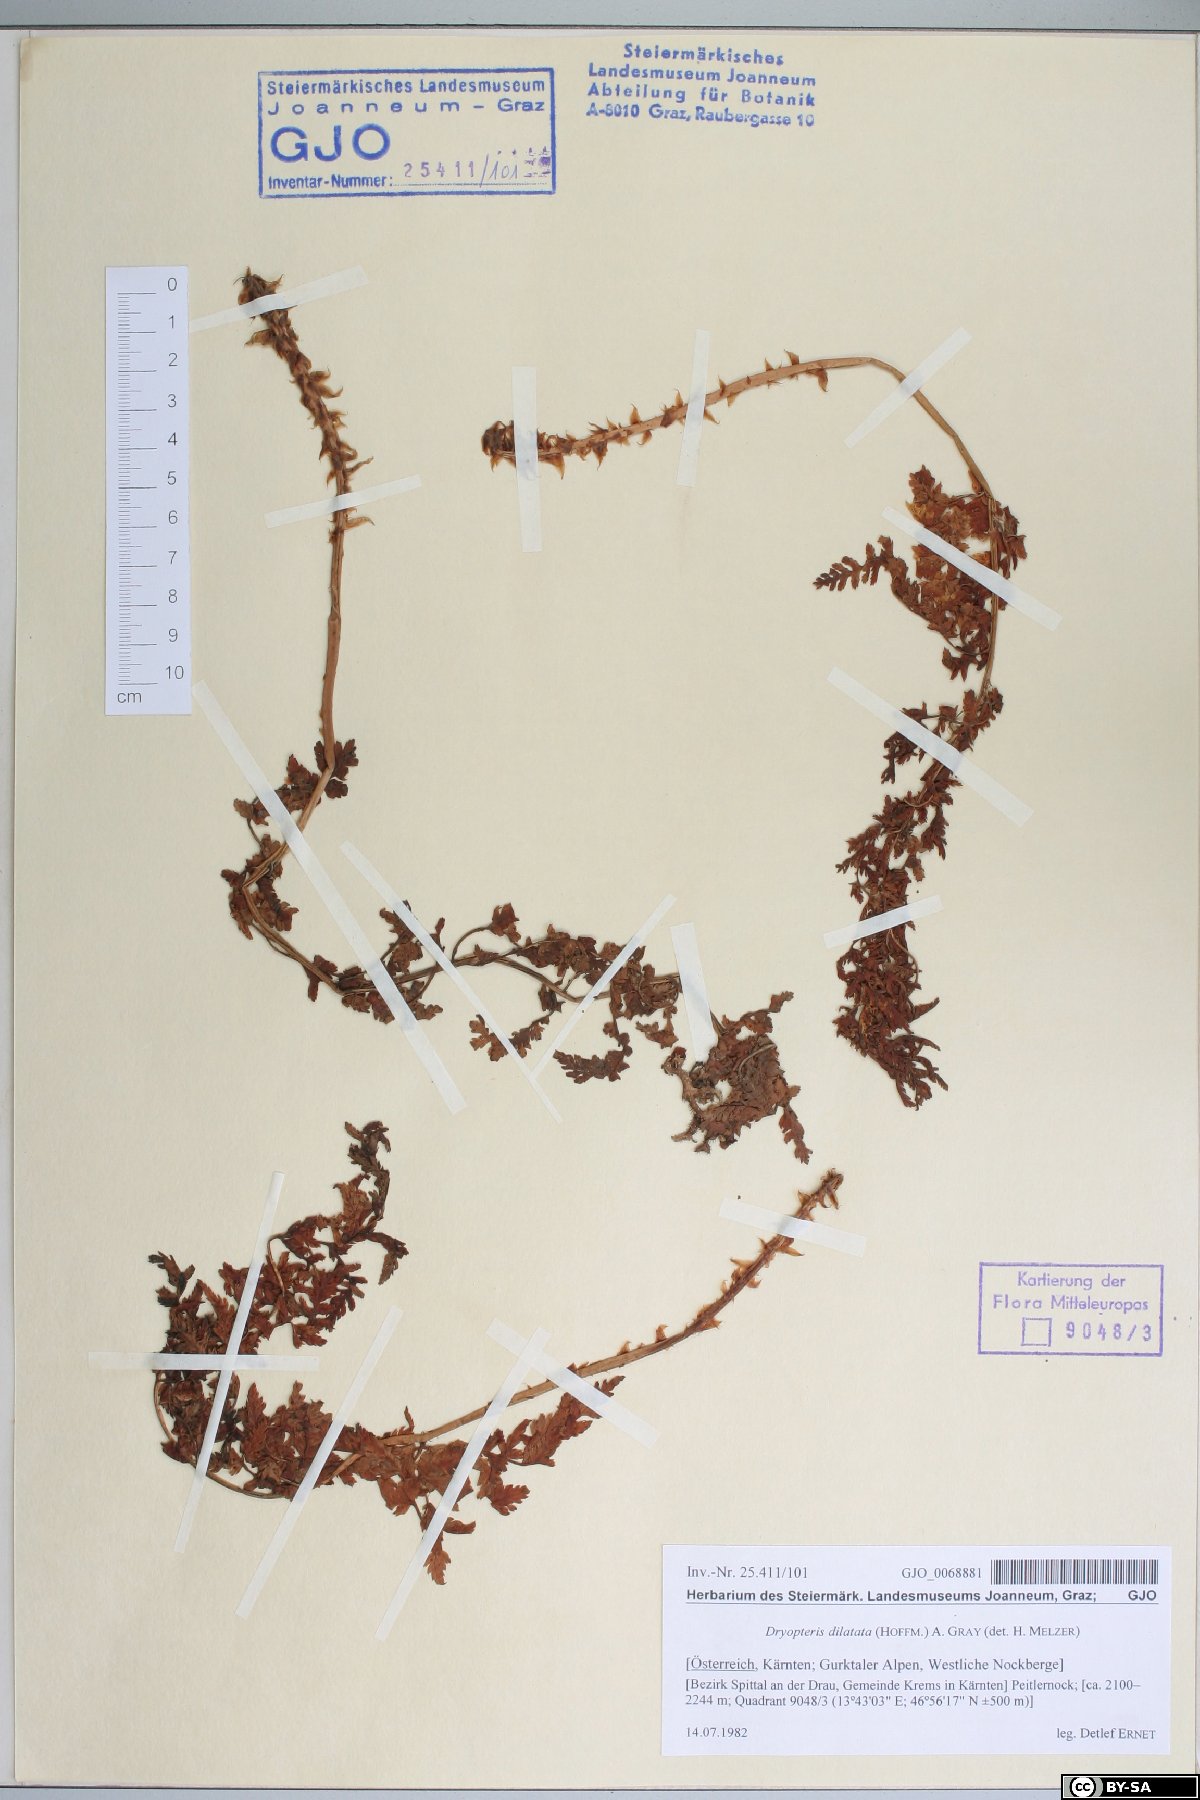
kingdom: Plantae
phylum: Tracheophyta
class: Polypodiopsida
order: Polypodiales
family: Dryopteridaceae
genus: Dryopteris
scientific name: Dryopteris dilatata
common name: Broad buckler-fern
